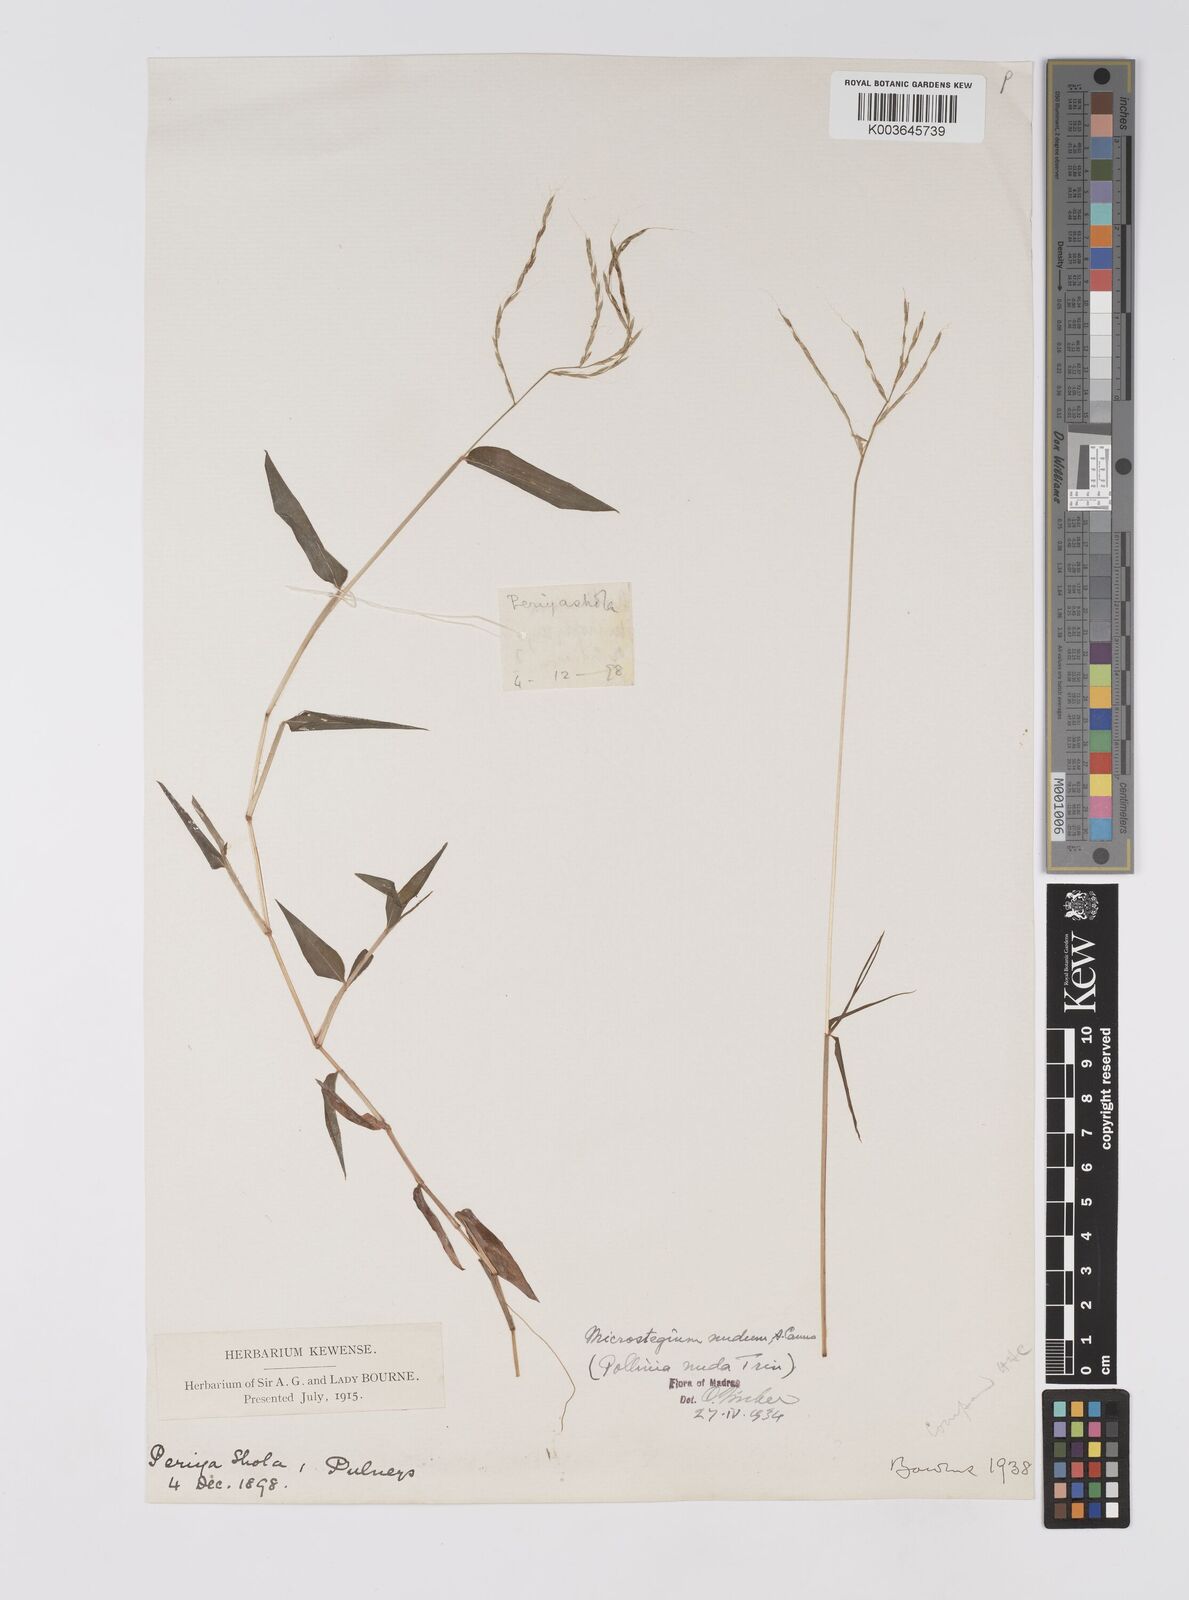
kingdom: Plantae
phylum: Tracheophyta
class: Liliopsida
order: Poales
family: Poaceae
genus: Microstegium
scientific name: Microstegium nudum
